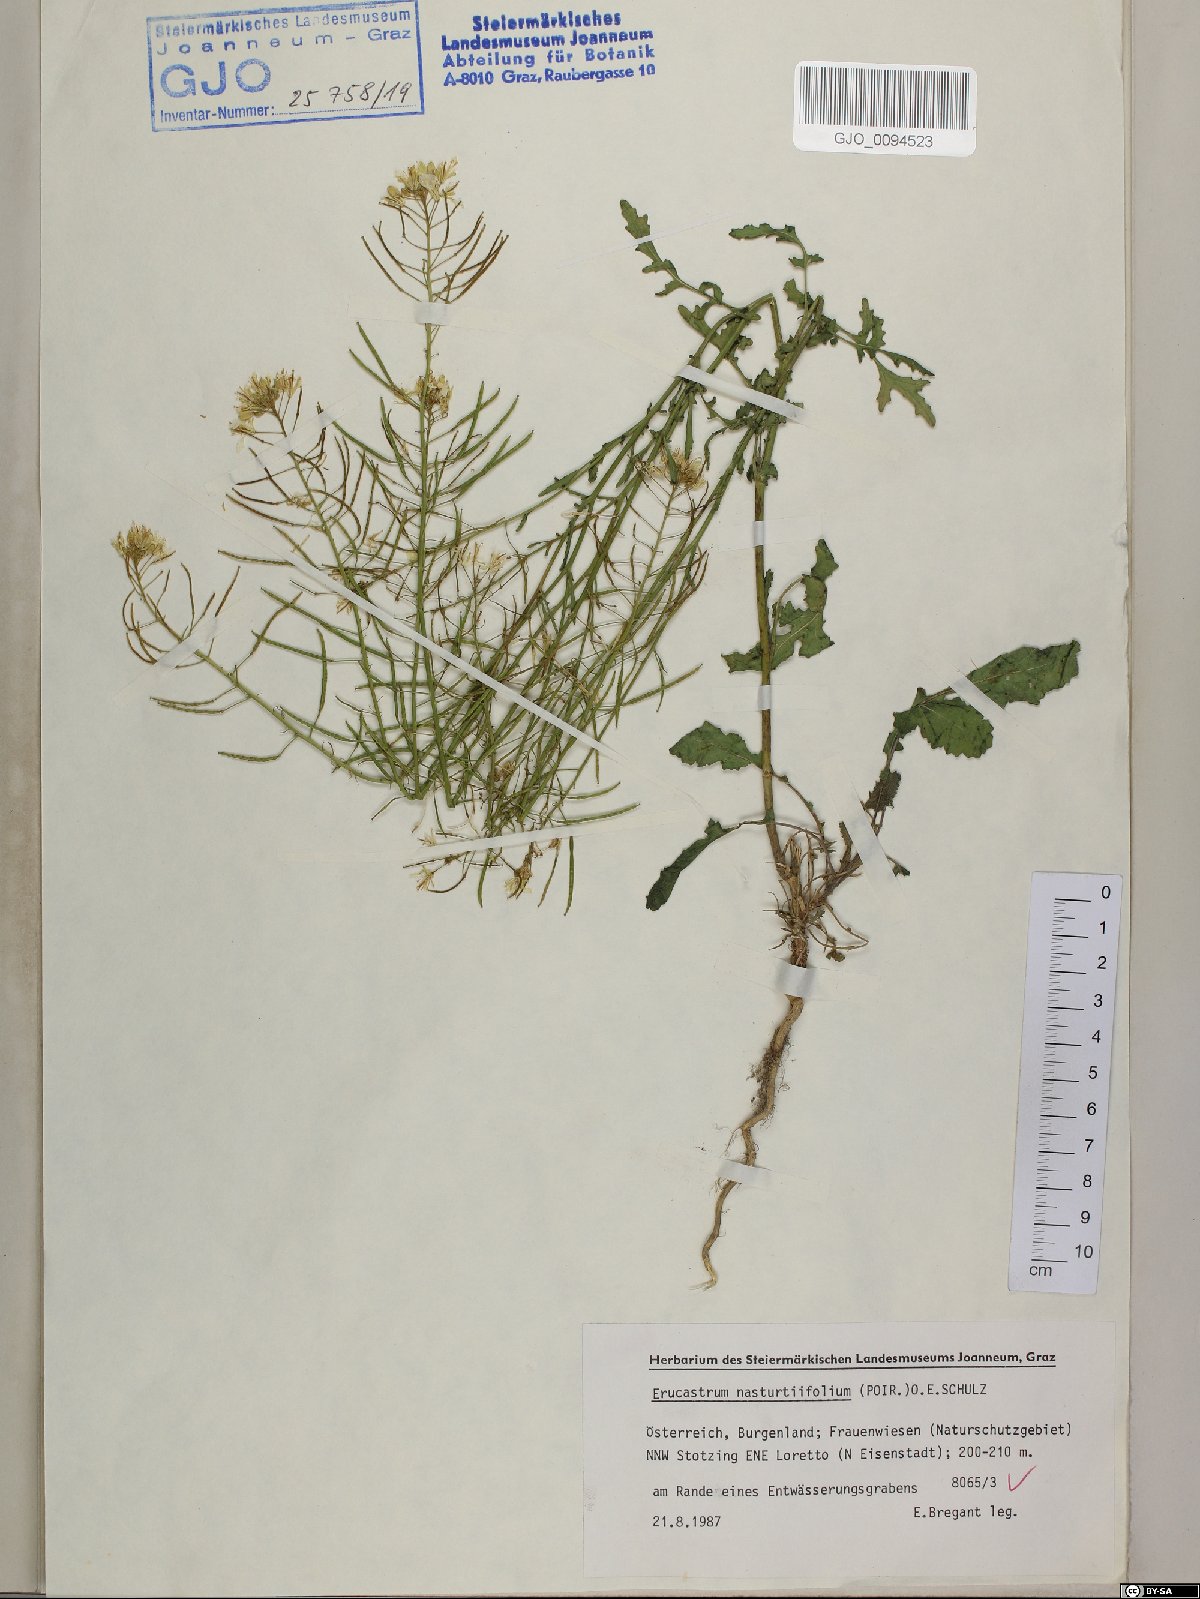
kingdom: Plantae
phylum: Tracheophyta
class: Magnoliopsida
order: Brassicales
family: Brassicaceae
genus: Erucastrum
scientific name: Erucastrum nasturtiifolium
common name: Watercress-leaf rocket
